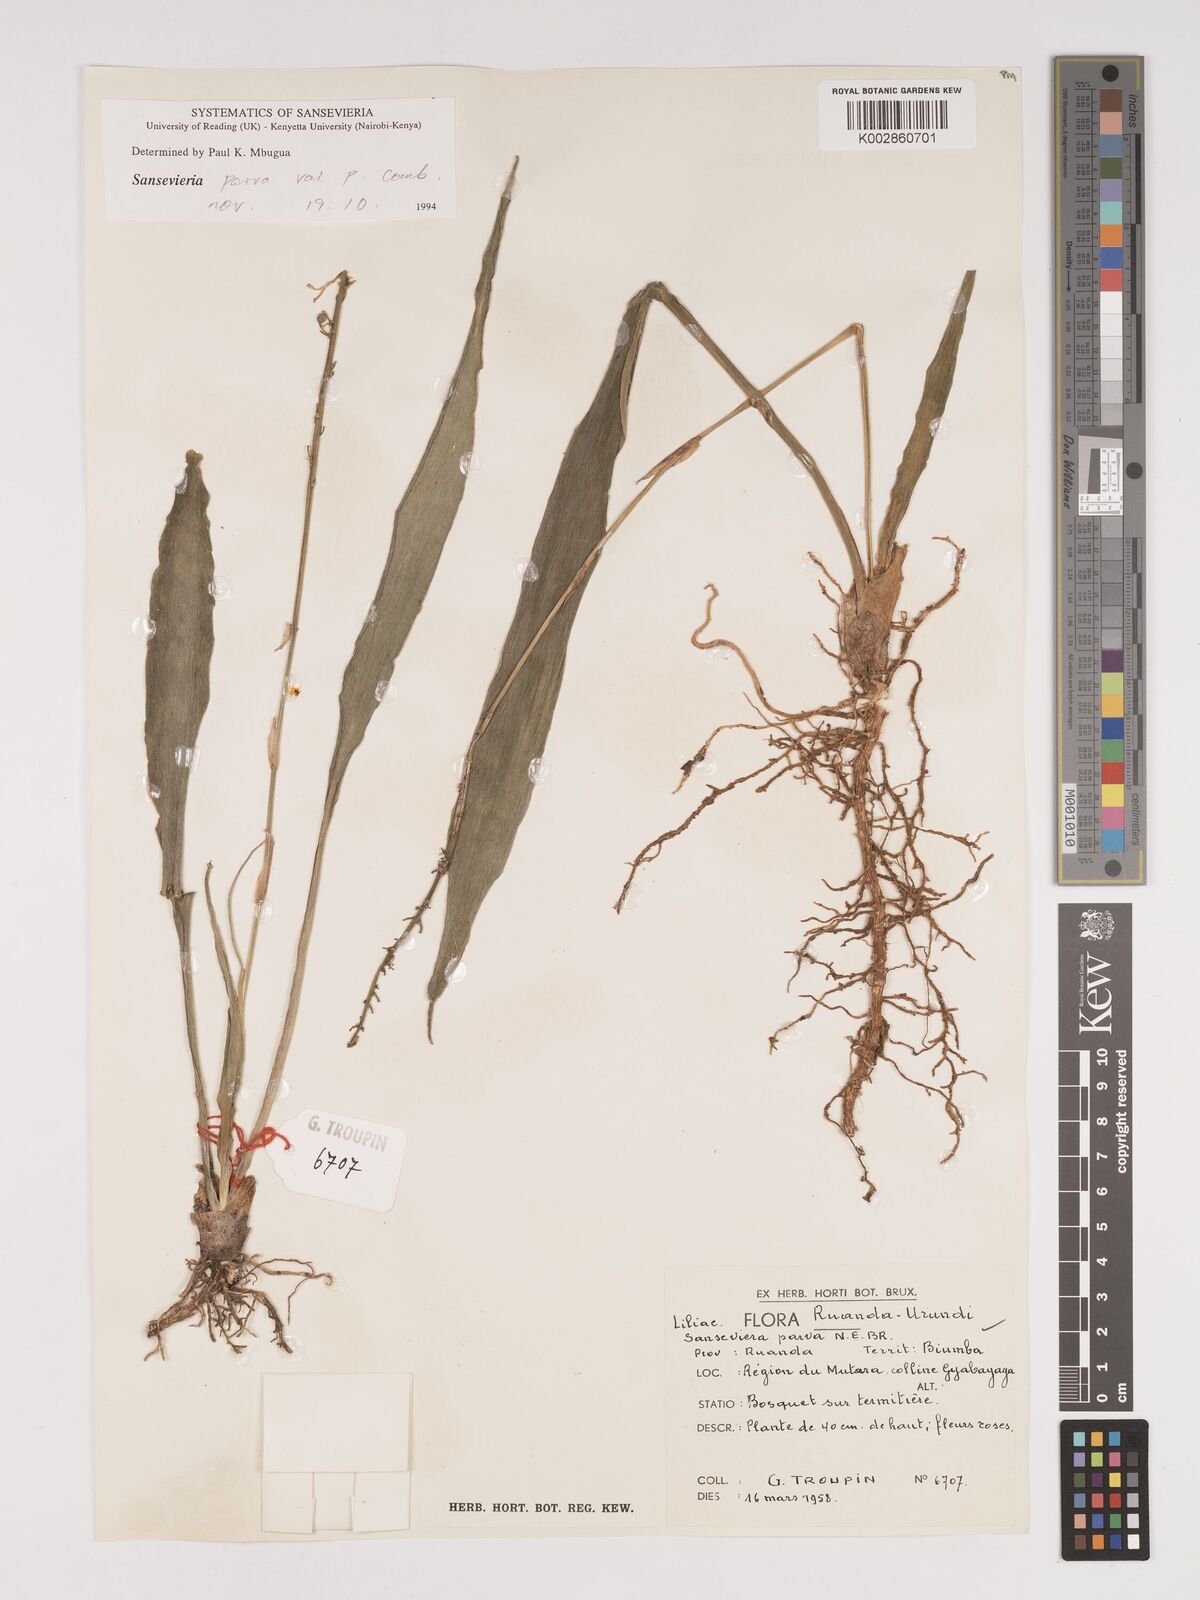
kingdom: Plantae
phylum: Tracheophyta
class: Liliopsida
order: Asparagales
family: Asparagaceae
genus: Dracaena
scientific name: Dracaena parva
